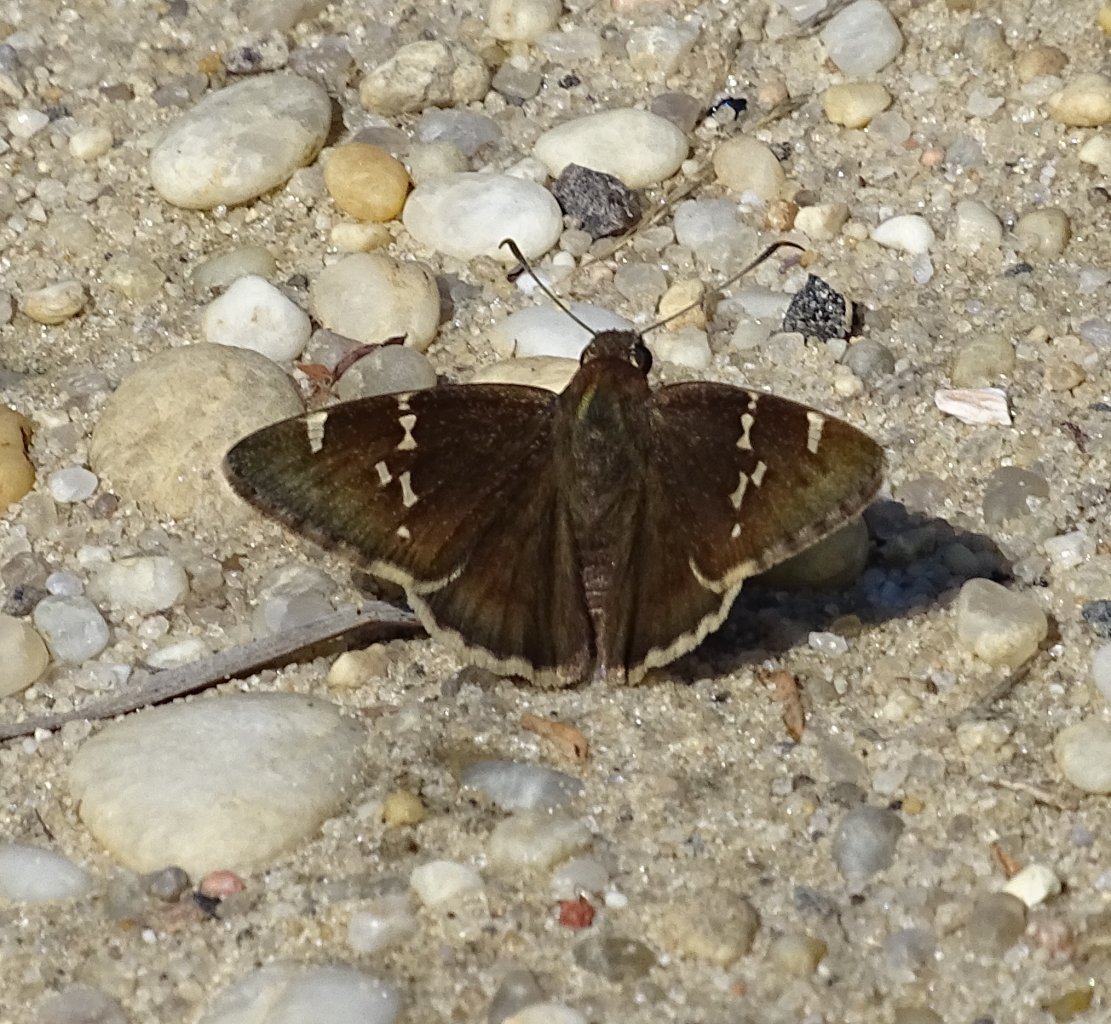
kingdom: Animalia
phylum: Arthropoda
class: Insecta
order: Lepidoptera
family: Hesperiidae
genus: Autochton
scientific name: Autochton
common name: Southern Cloudywing
